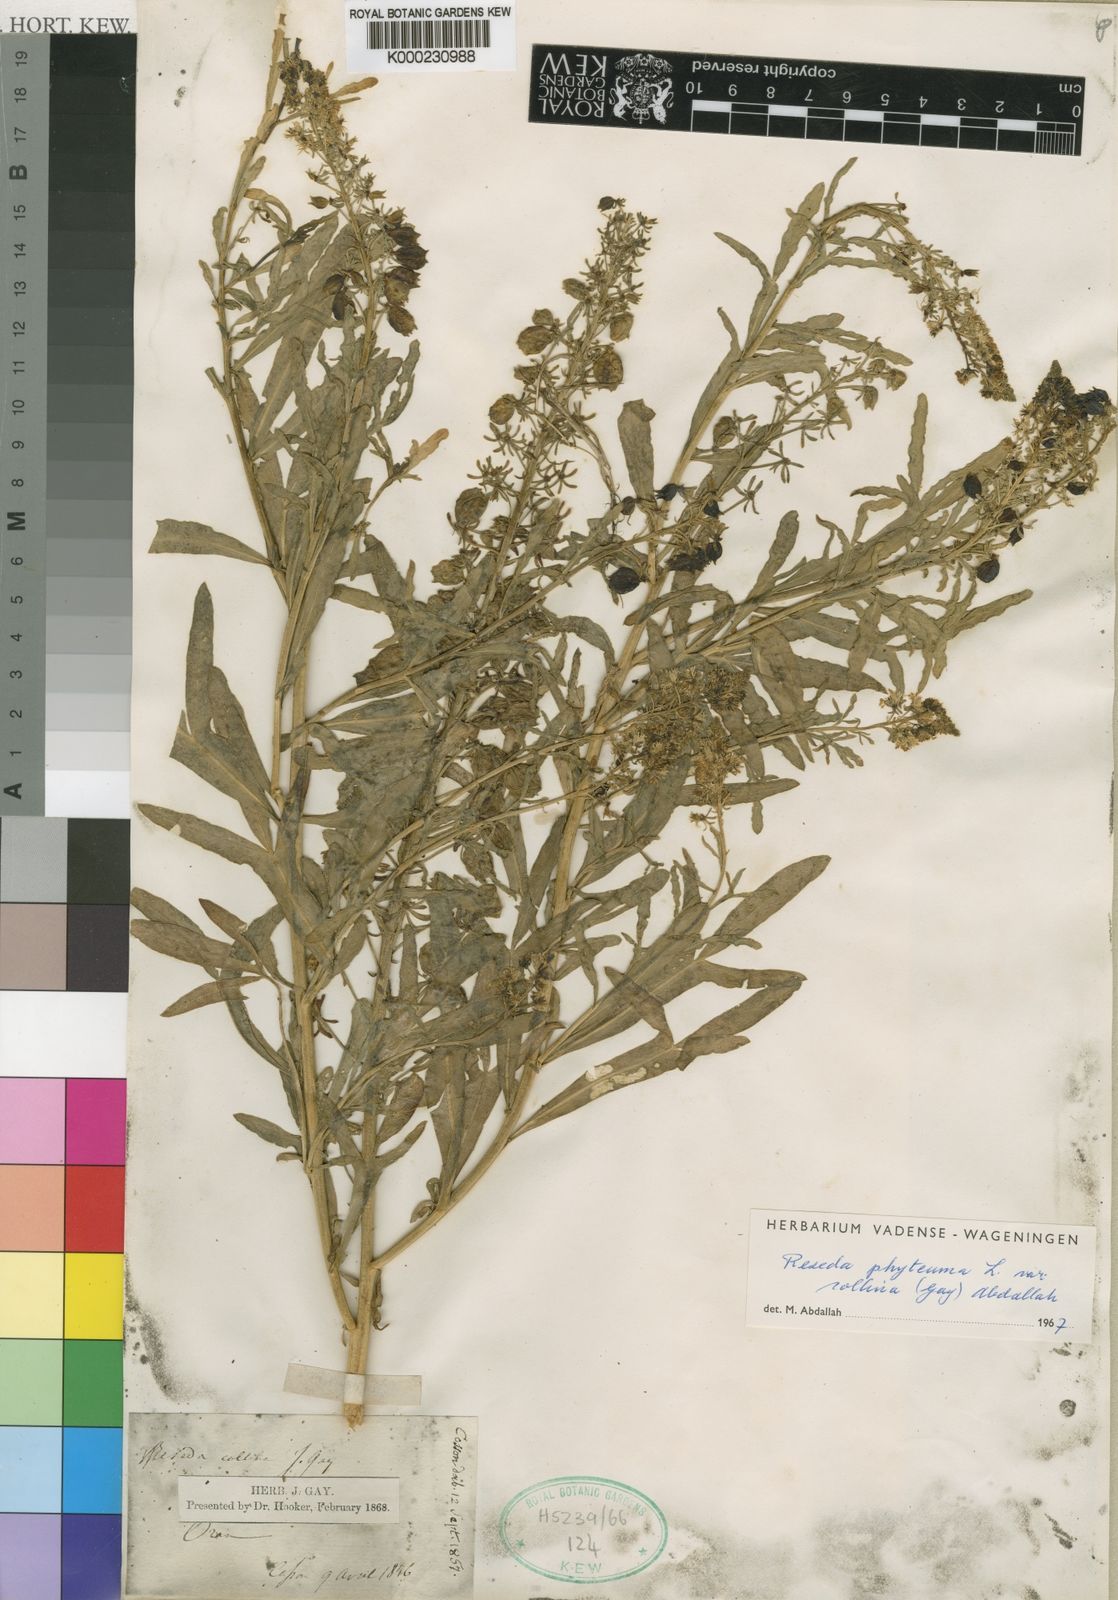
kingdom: Plantae
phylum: Tracheophyta
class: Magnoliopsida
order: Brassicales
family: Resedaceae
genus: Reseda
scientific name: Reseda phyteuma
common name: Corn mignonette
